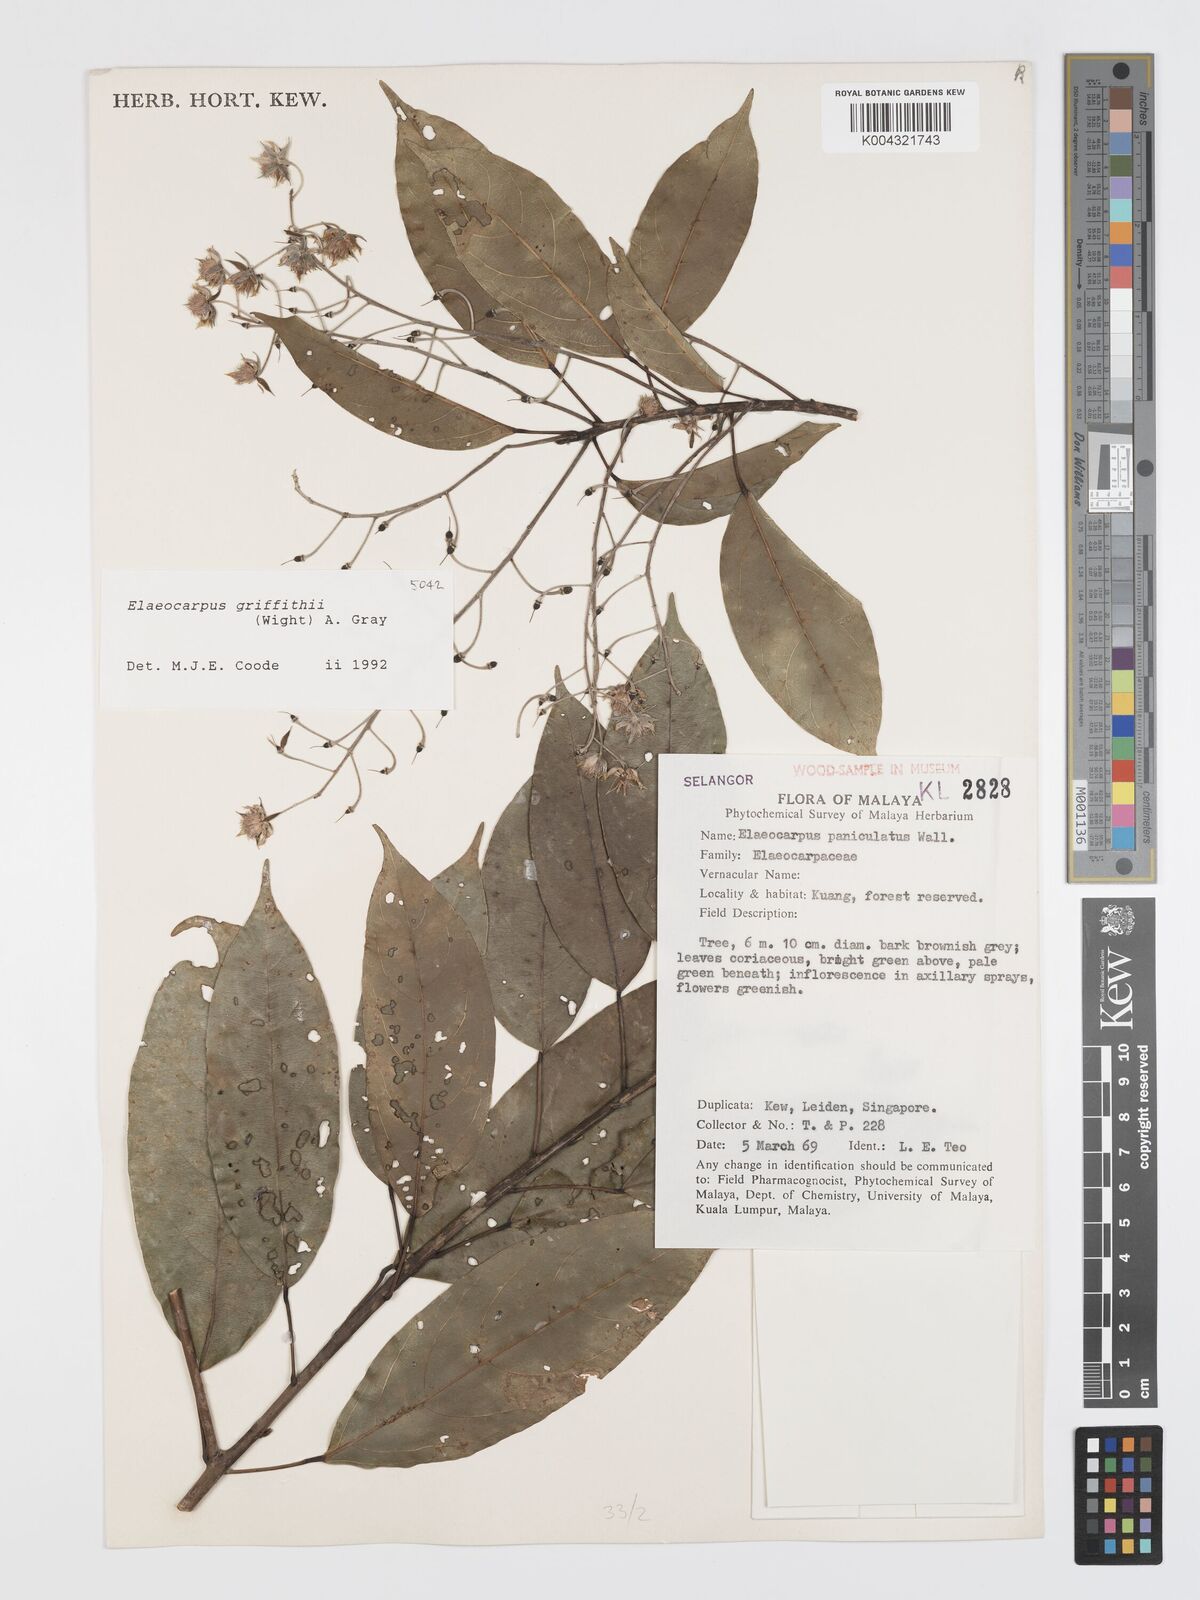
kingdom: Plantae
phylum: Tracheophyta
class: Magnoliopsida
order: Oxalidales
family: Elaeocarpaceae
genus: Elaeocarpus
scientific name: Elaeocarpus griffithii
